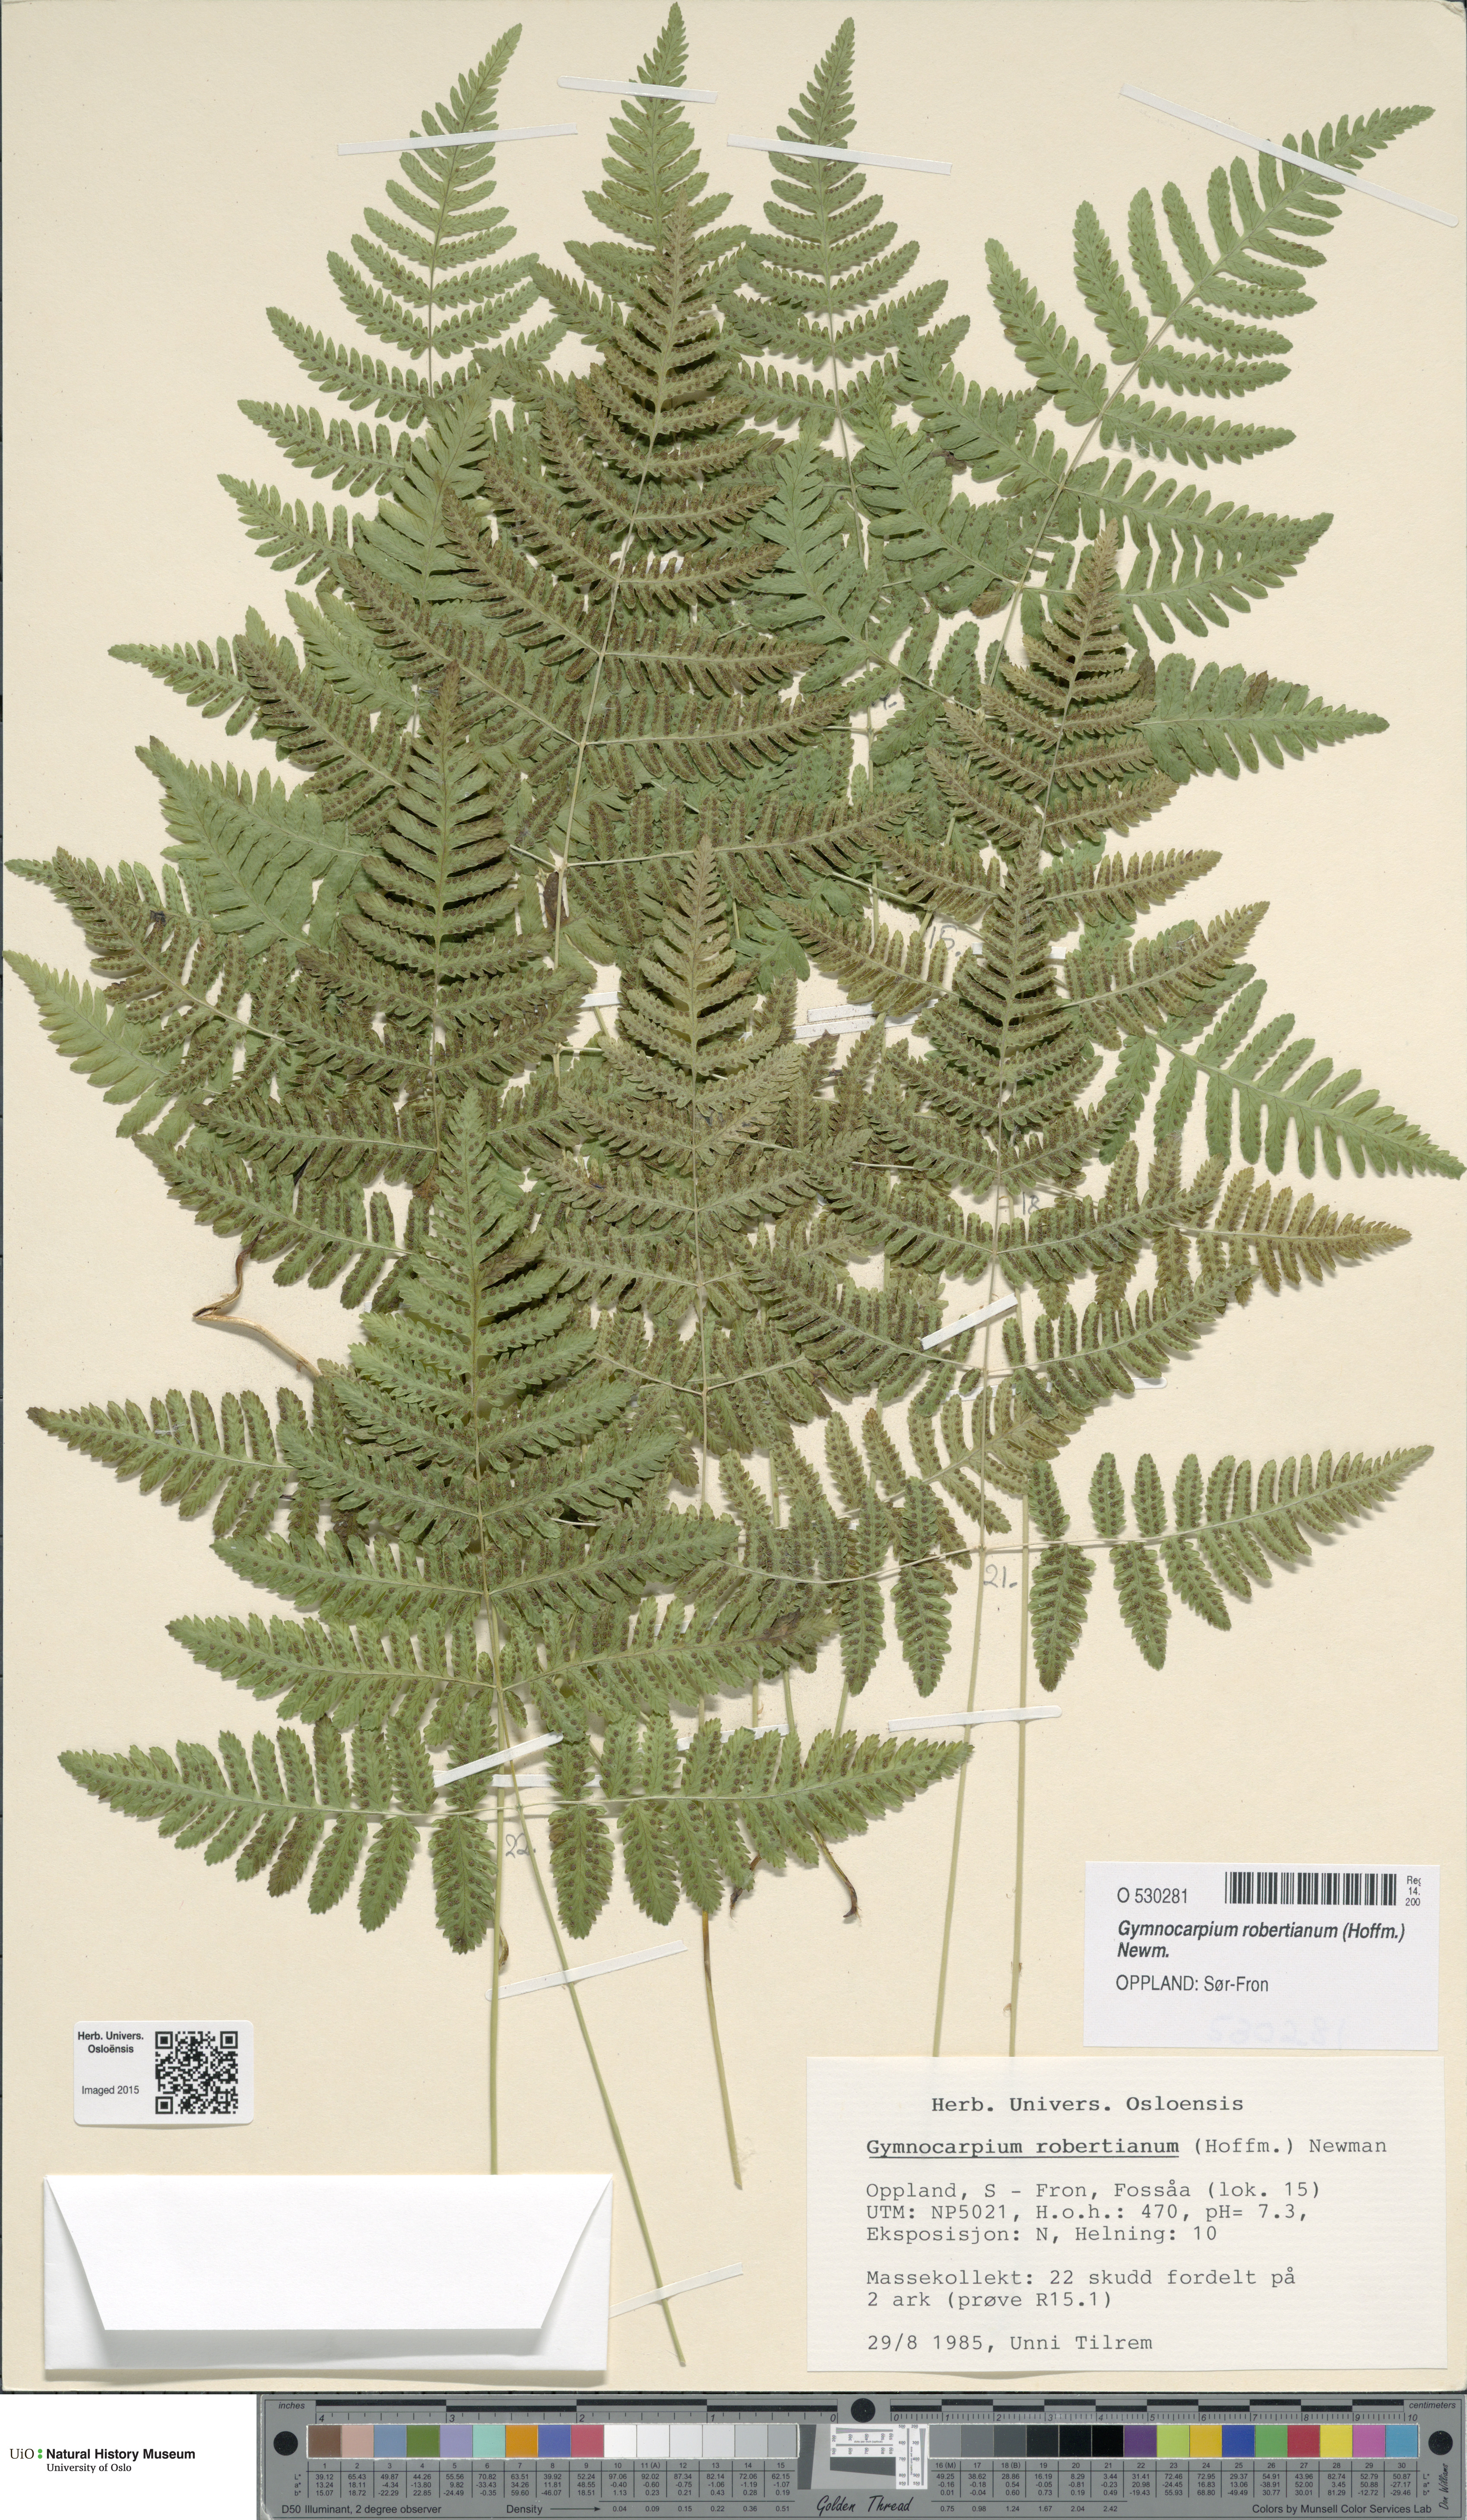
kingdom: Plantae
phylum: Tracheophyta
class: Polypodiopsida
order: Polypodiales
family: Cystopteridaceae
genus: Gymnocarpium
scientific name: Gymnocarpium robertianum
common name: Limestone fern
